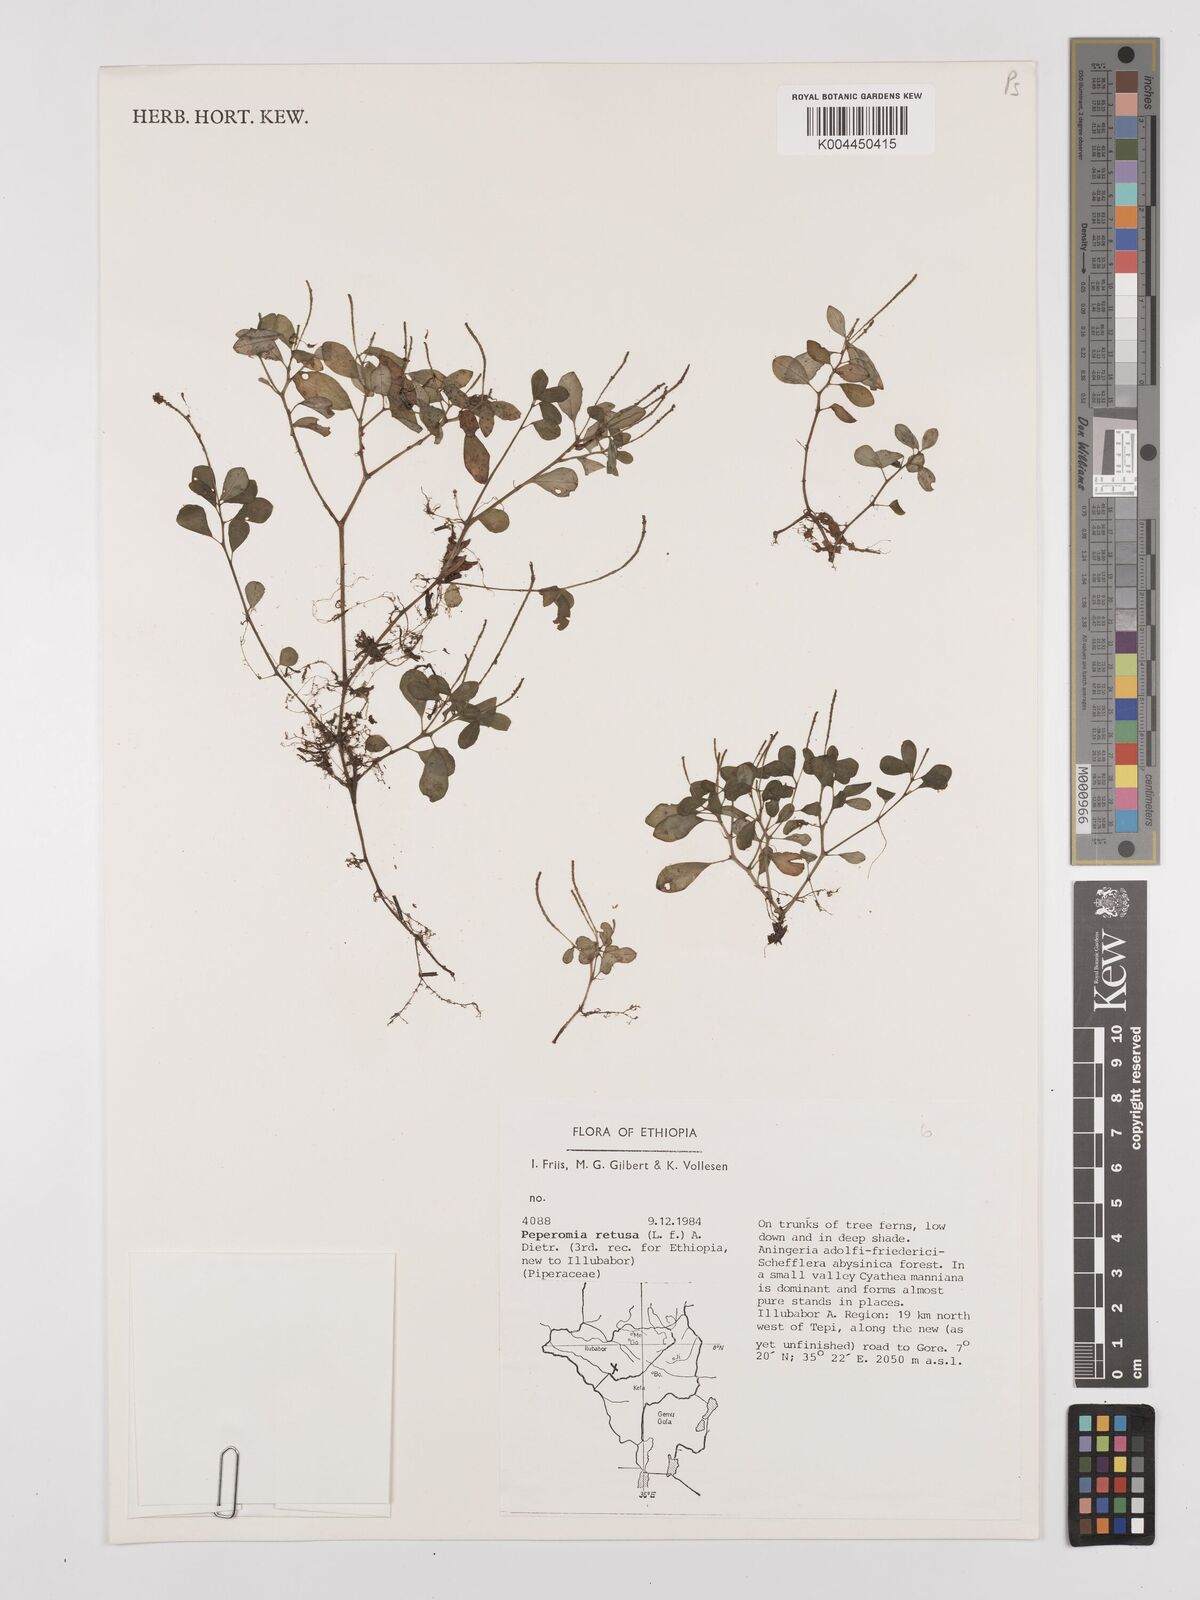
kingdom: Plantae
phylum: Tracheophyta
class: Magnoliopsida
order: Piperales
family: Piperaceae
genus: Peperomia
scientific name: Peperomia retusa
